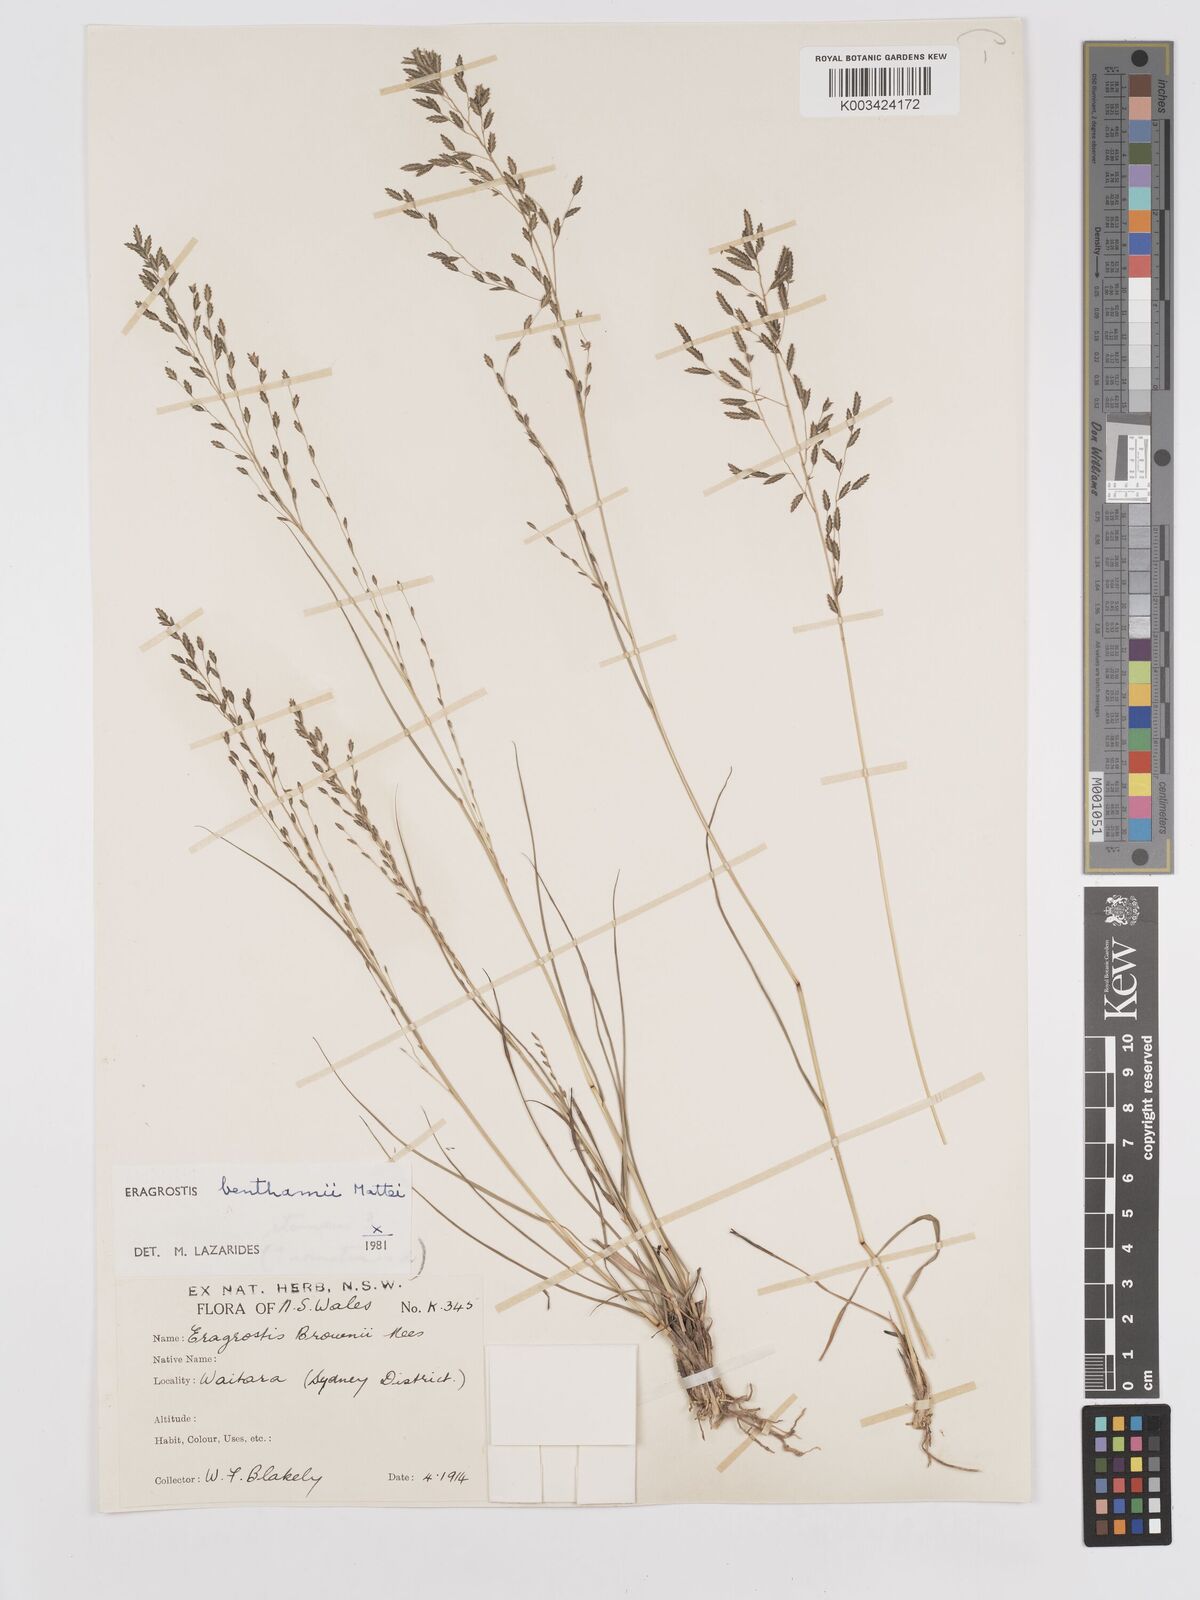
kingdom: Plantae
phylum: Tracheophyta
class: Liliopsida
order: Poales
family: Poaceae
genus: Eragrostis
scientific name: Eragrostis brownii
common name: Lovegrass
